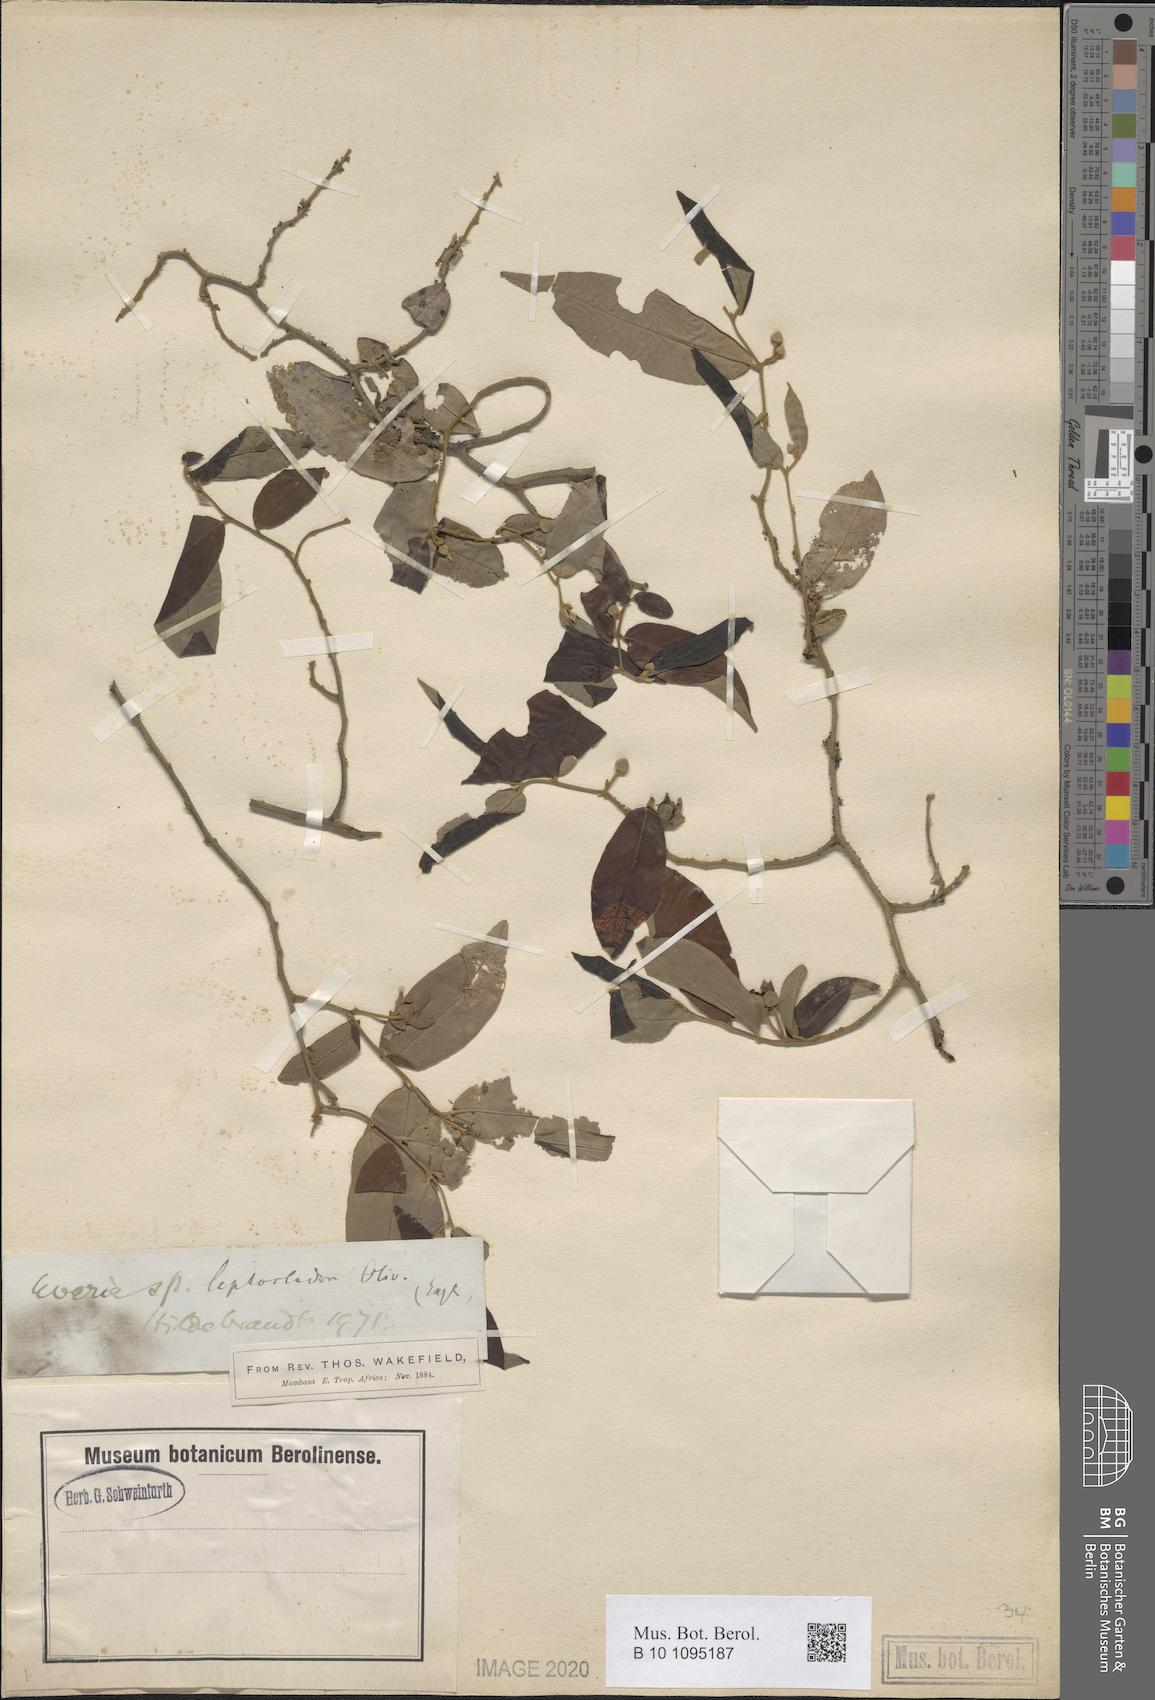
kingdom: Plantae
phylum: Tracheophyta
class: Magnoliopsida
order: Magnoliales
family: Annonaceae
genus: Uvaria
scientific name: Uvaria leptocladon
